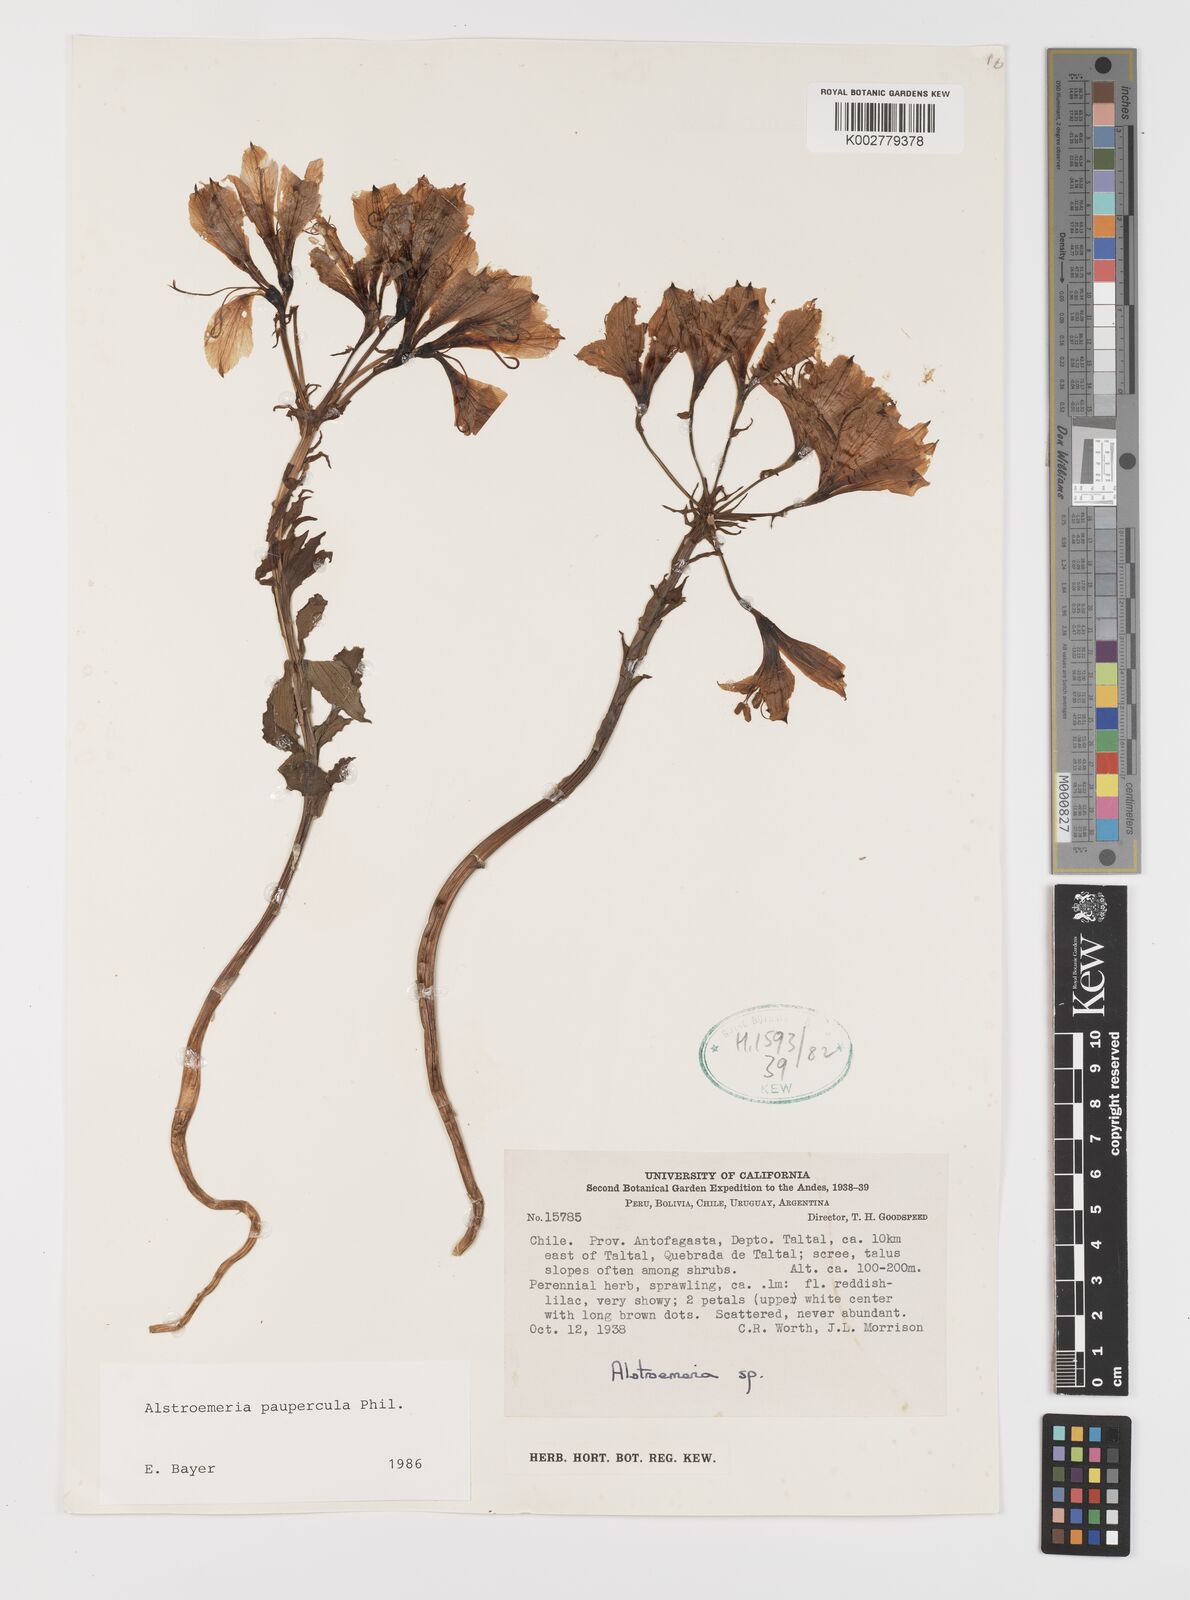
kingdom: Plantae
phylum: Tracheophyta
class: Liliopsida
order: Liliales
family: Alstroemeriaceae
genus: Alstroemeria
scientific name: Alstroemeria paupercula
